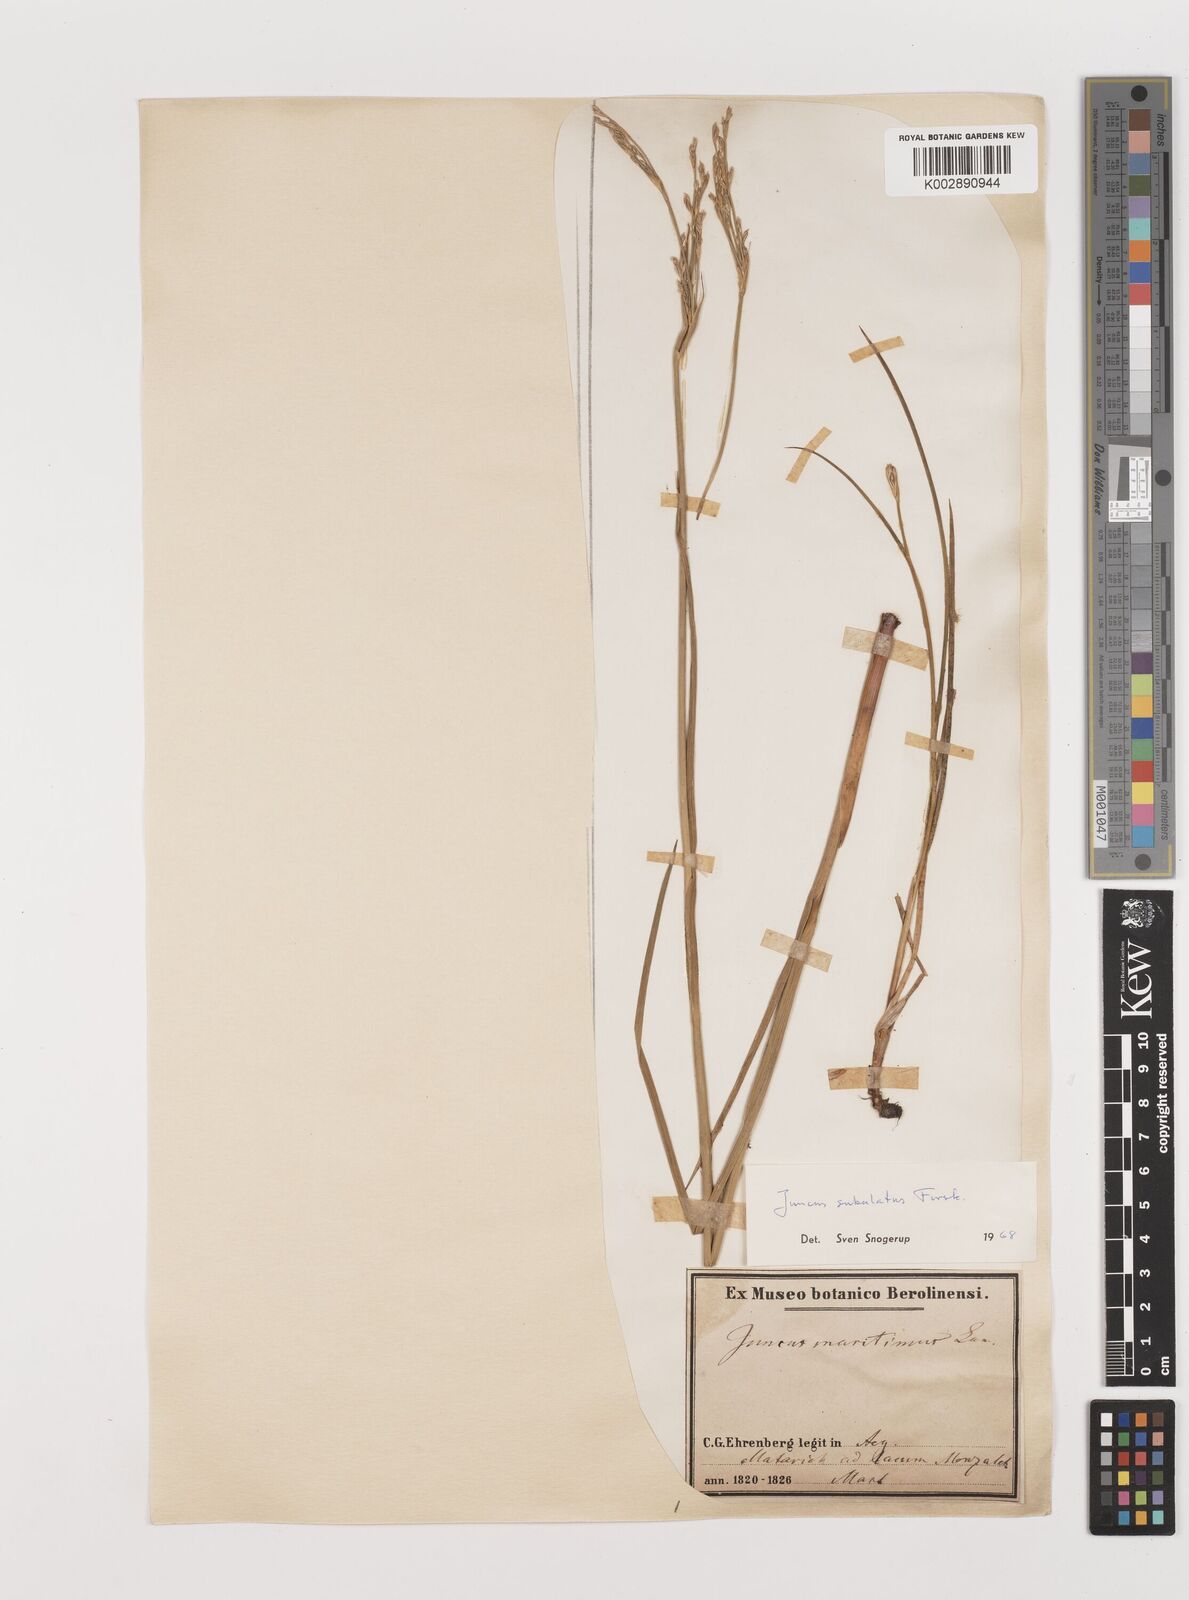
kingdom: Plantae
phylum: Tracheophyta
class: Liliopsida
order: Poales
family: Juncaceae
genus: Juncus
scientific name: Juncus subulatus
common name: Somerset rush
